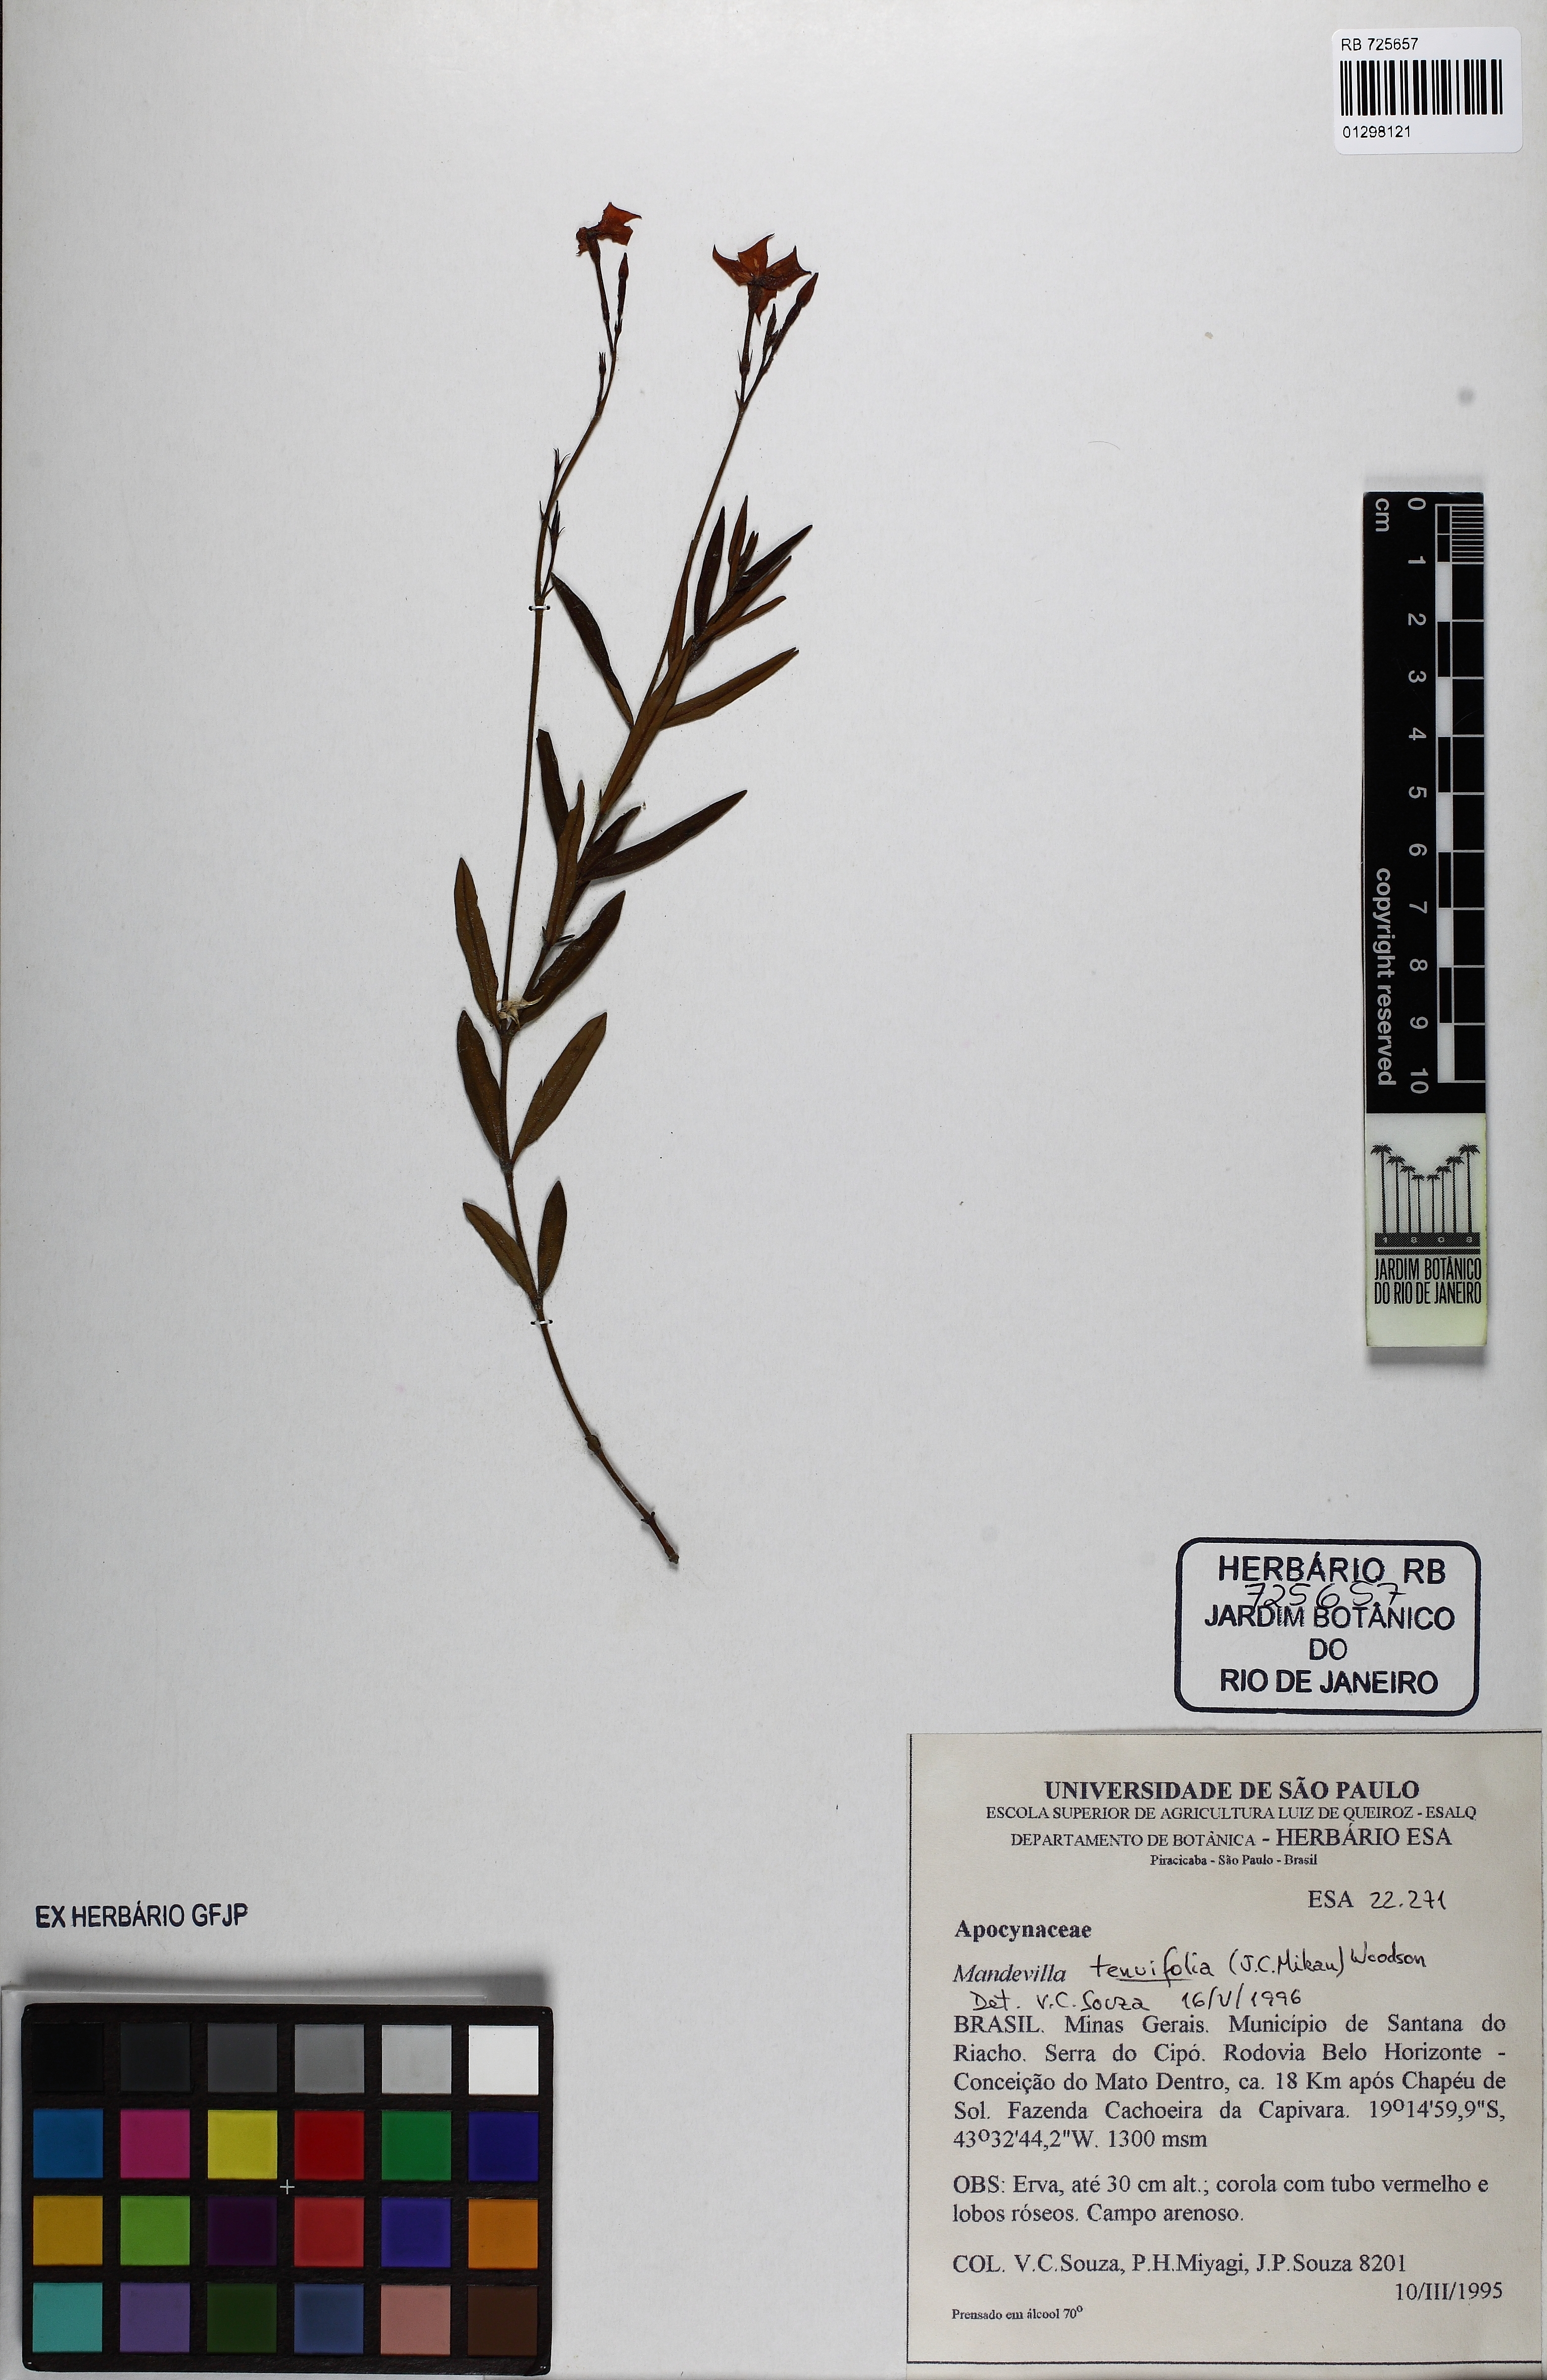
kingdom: Plantae
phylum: Tracheophyta
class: Magnoliopsida
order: Gentianales
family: Apocynaceae
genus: Mandevilla
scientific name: Mandevilla
